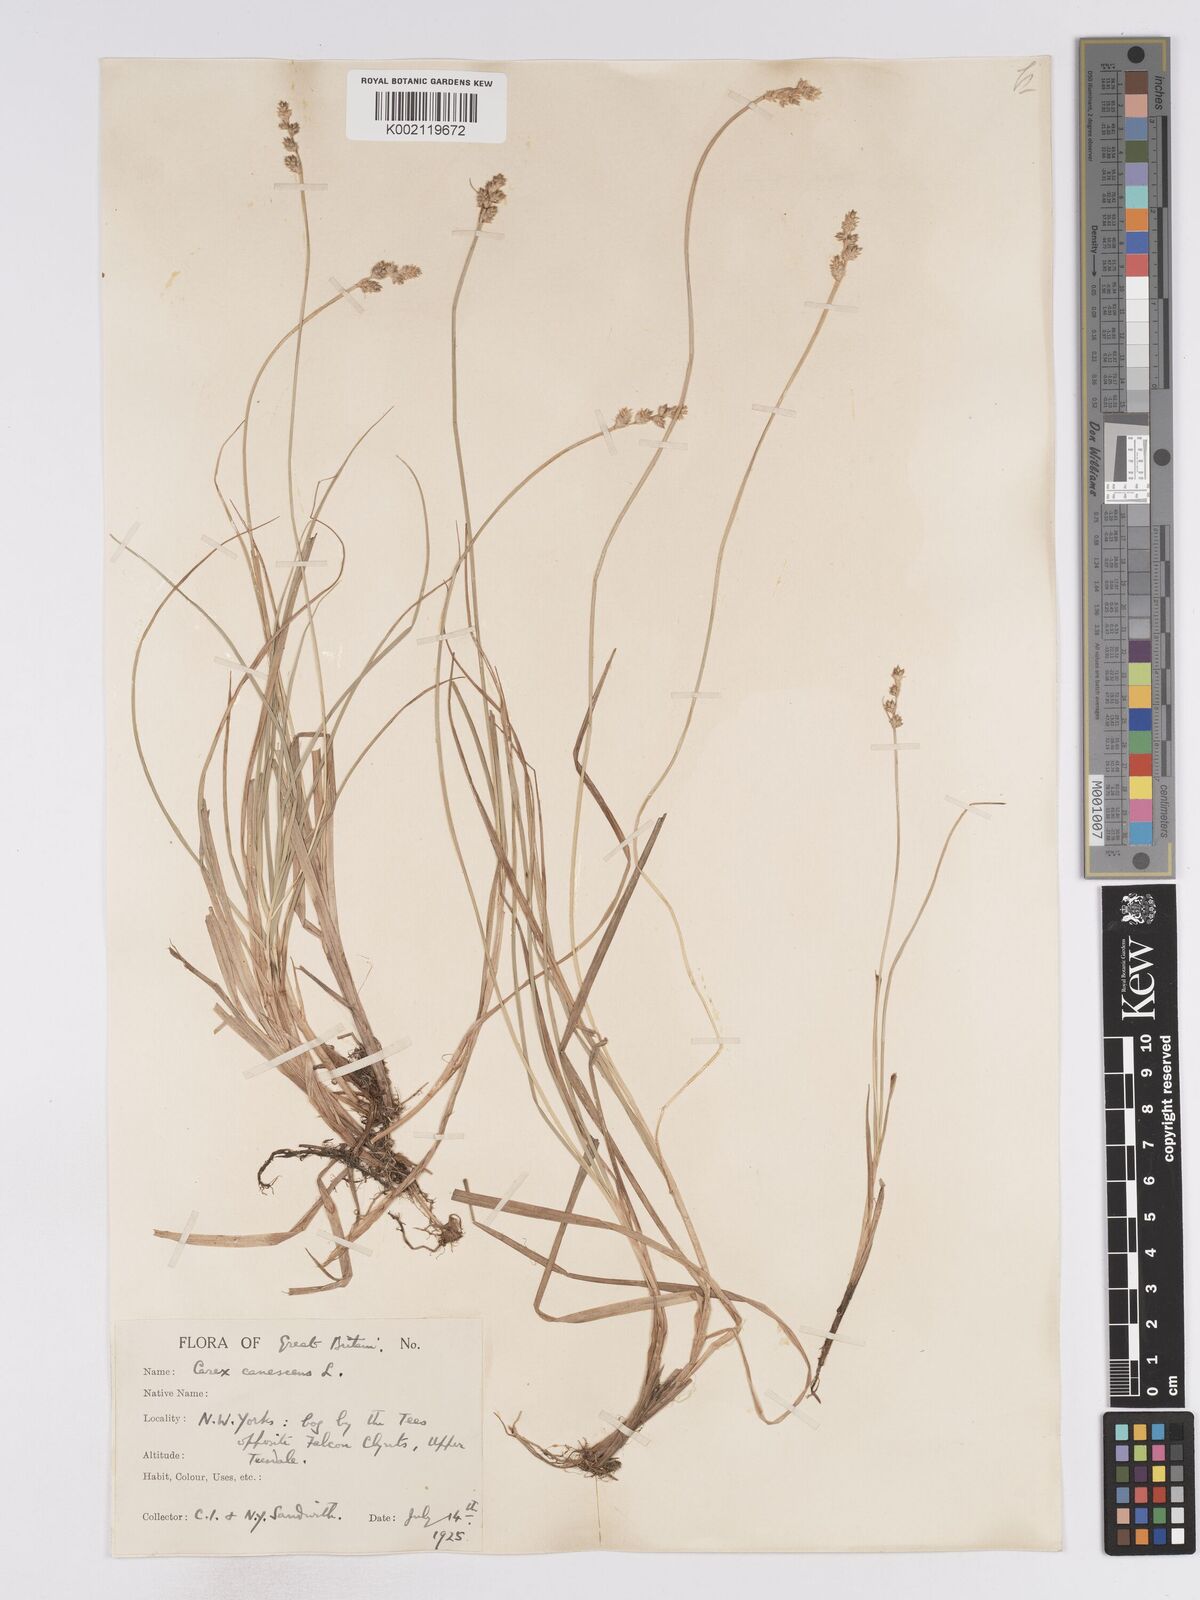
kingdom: Plantae
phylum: Tracheophyta
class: Liliopsida
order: Poales
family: Cyperaceae
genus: Carex
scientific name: Carex curta
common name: White sedge
